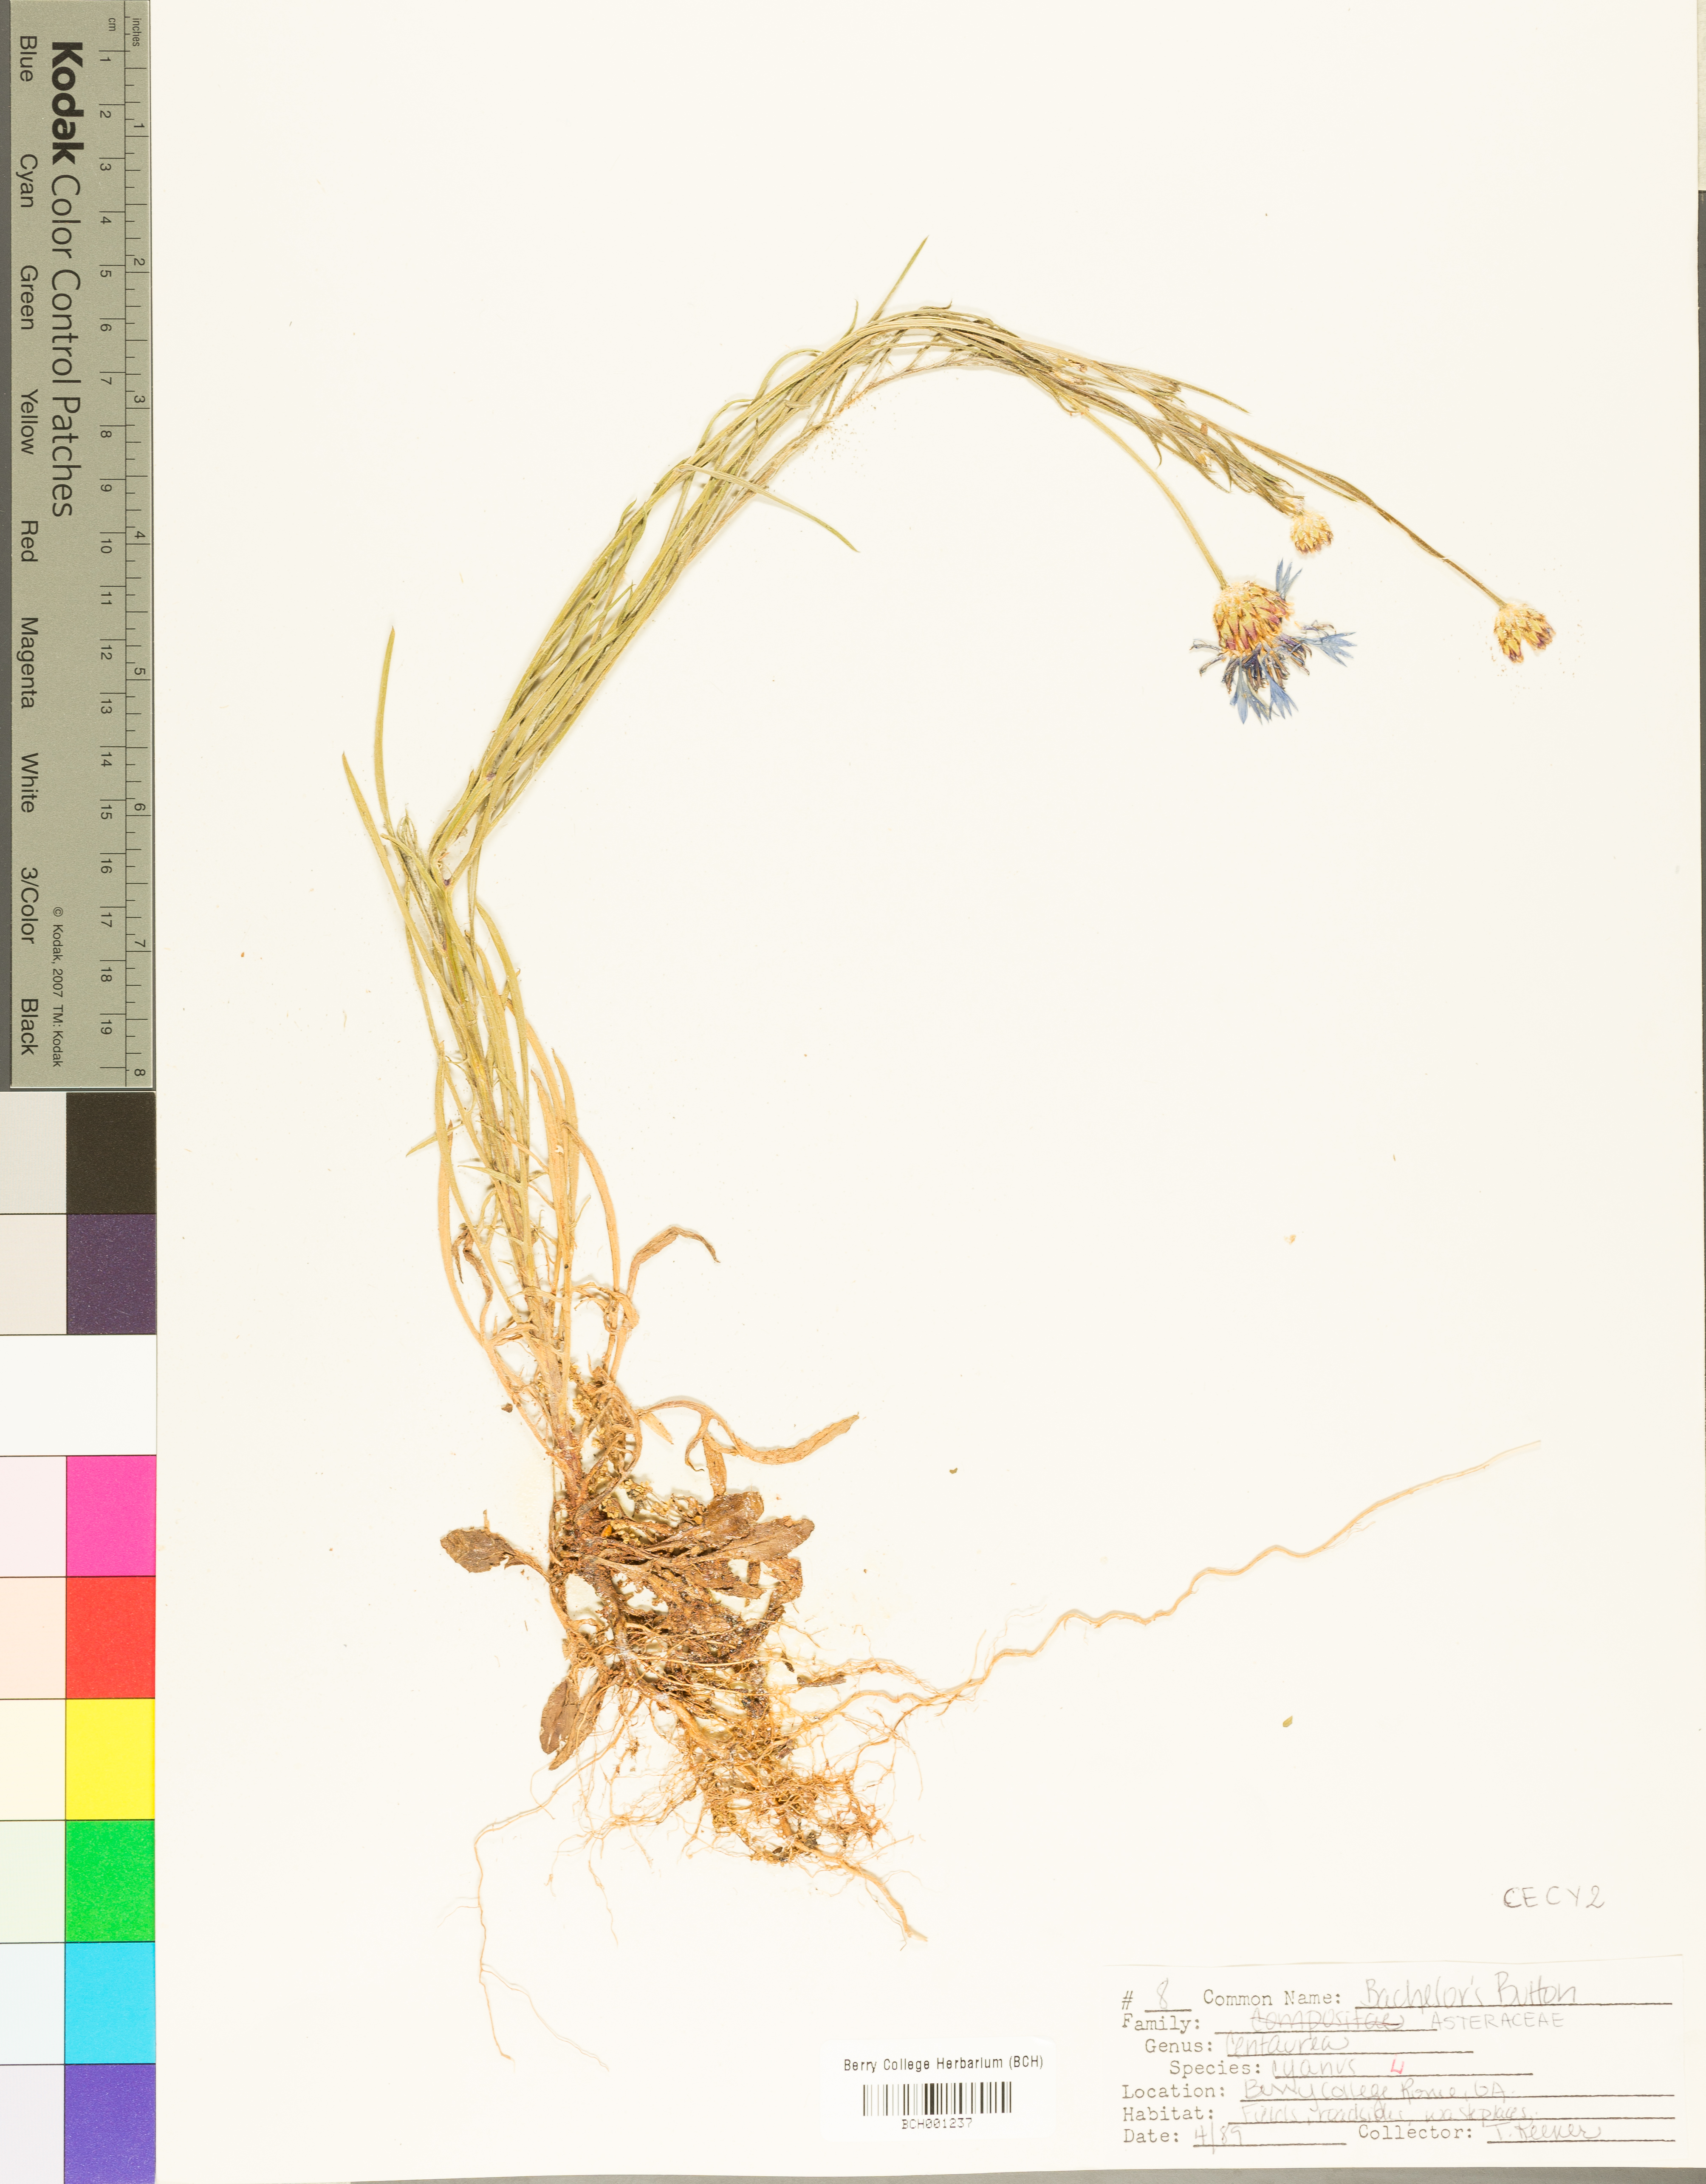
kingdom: Plantae
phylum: Tracheophyta
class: Magnoliopsida
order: Asterales
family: Asteraceae
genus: Centaurea
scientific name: Centaurea cyanus
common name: Cornflower
